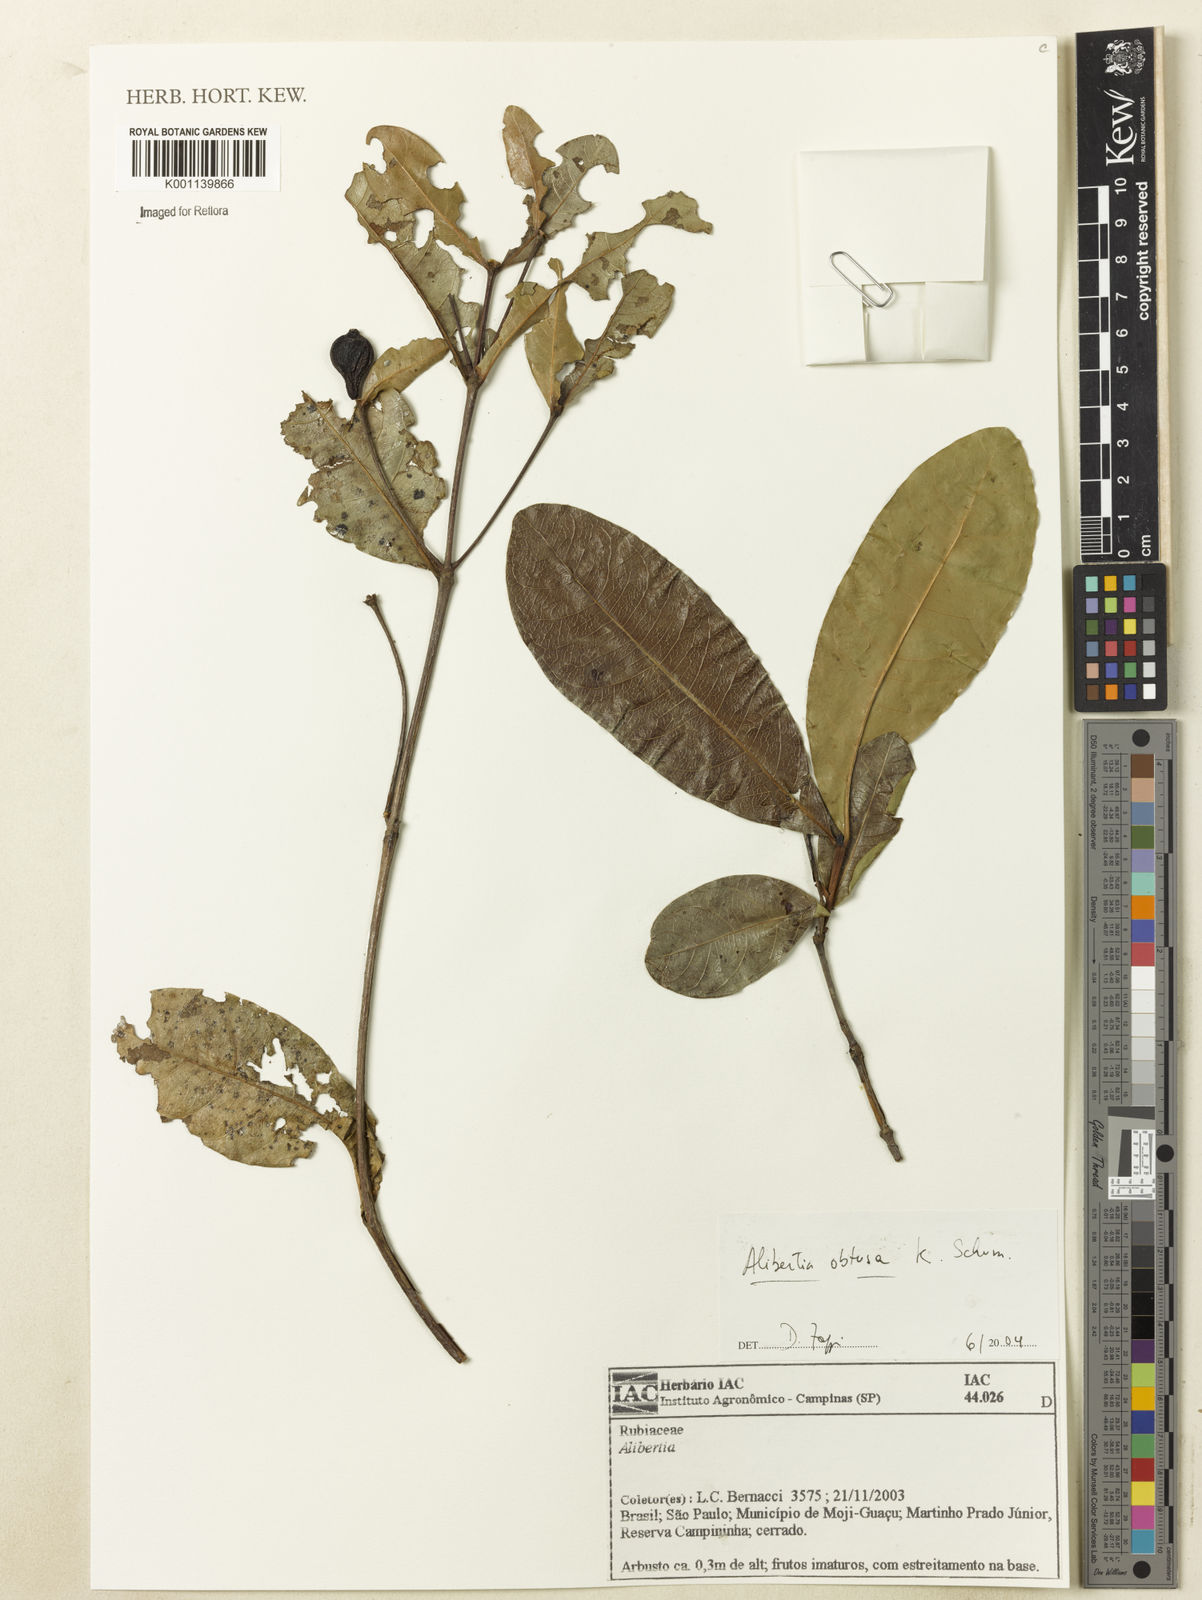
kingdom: Plantae
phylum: Tracheophyta
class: Magnoliopsida
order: Gentianales
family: Rubiaceae
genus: Cordiera
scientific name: Cordiera obtusa
